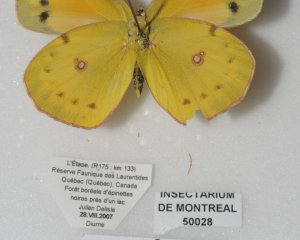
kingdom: Animalia
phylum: Arthropoda
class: Insecta
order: Lepidoptera
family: Pieridae
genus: Colias
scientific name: Colias eurytheme
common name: Orange Sulphur
